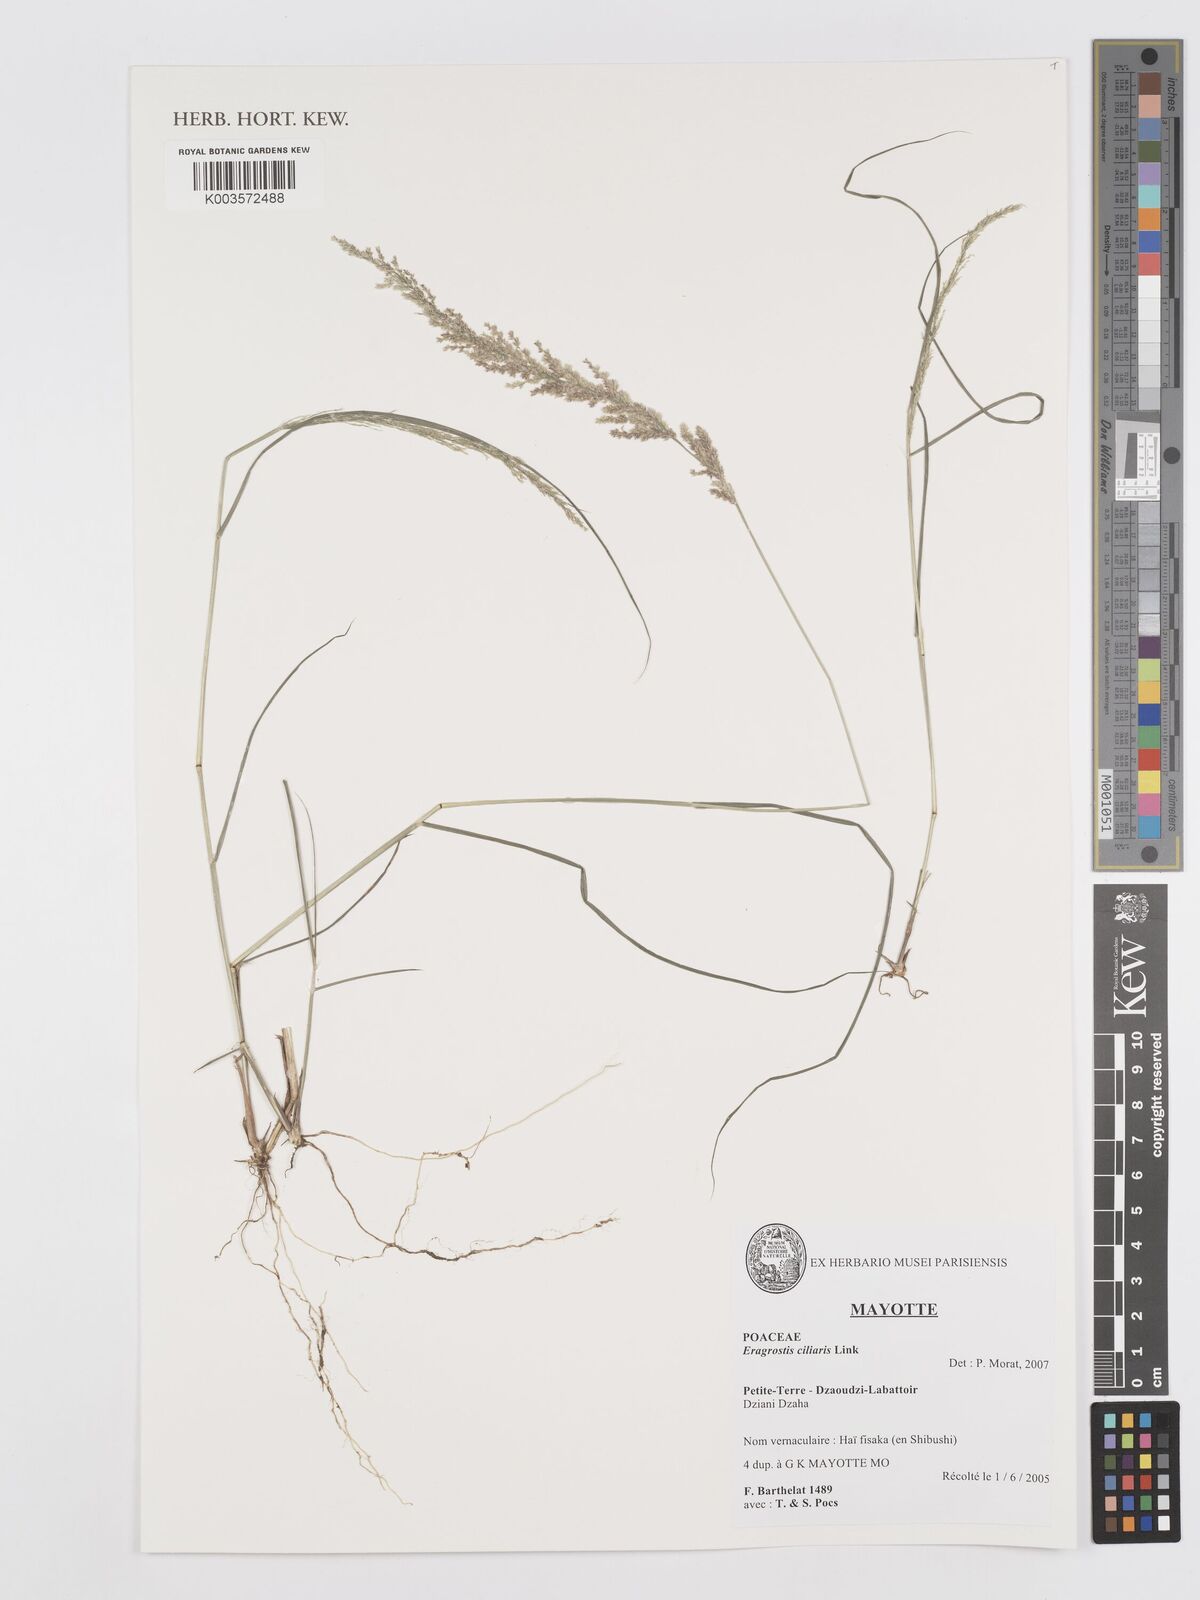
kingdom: Plantae
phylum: Tracheophyta
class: Liliopsida
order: Poales
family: Poaceae
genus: Eragrostis
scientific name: Eragrostis ciliaris
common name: Gophertail lovegrass
